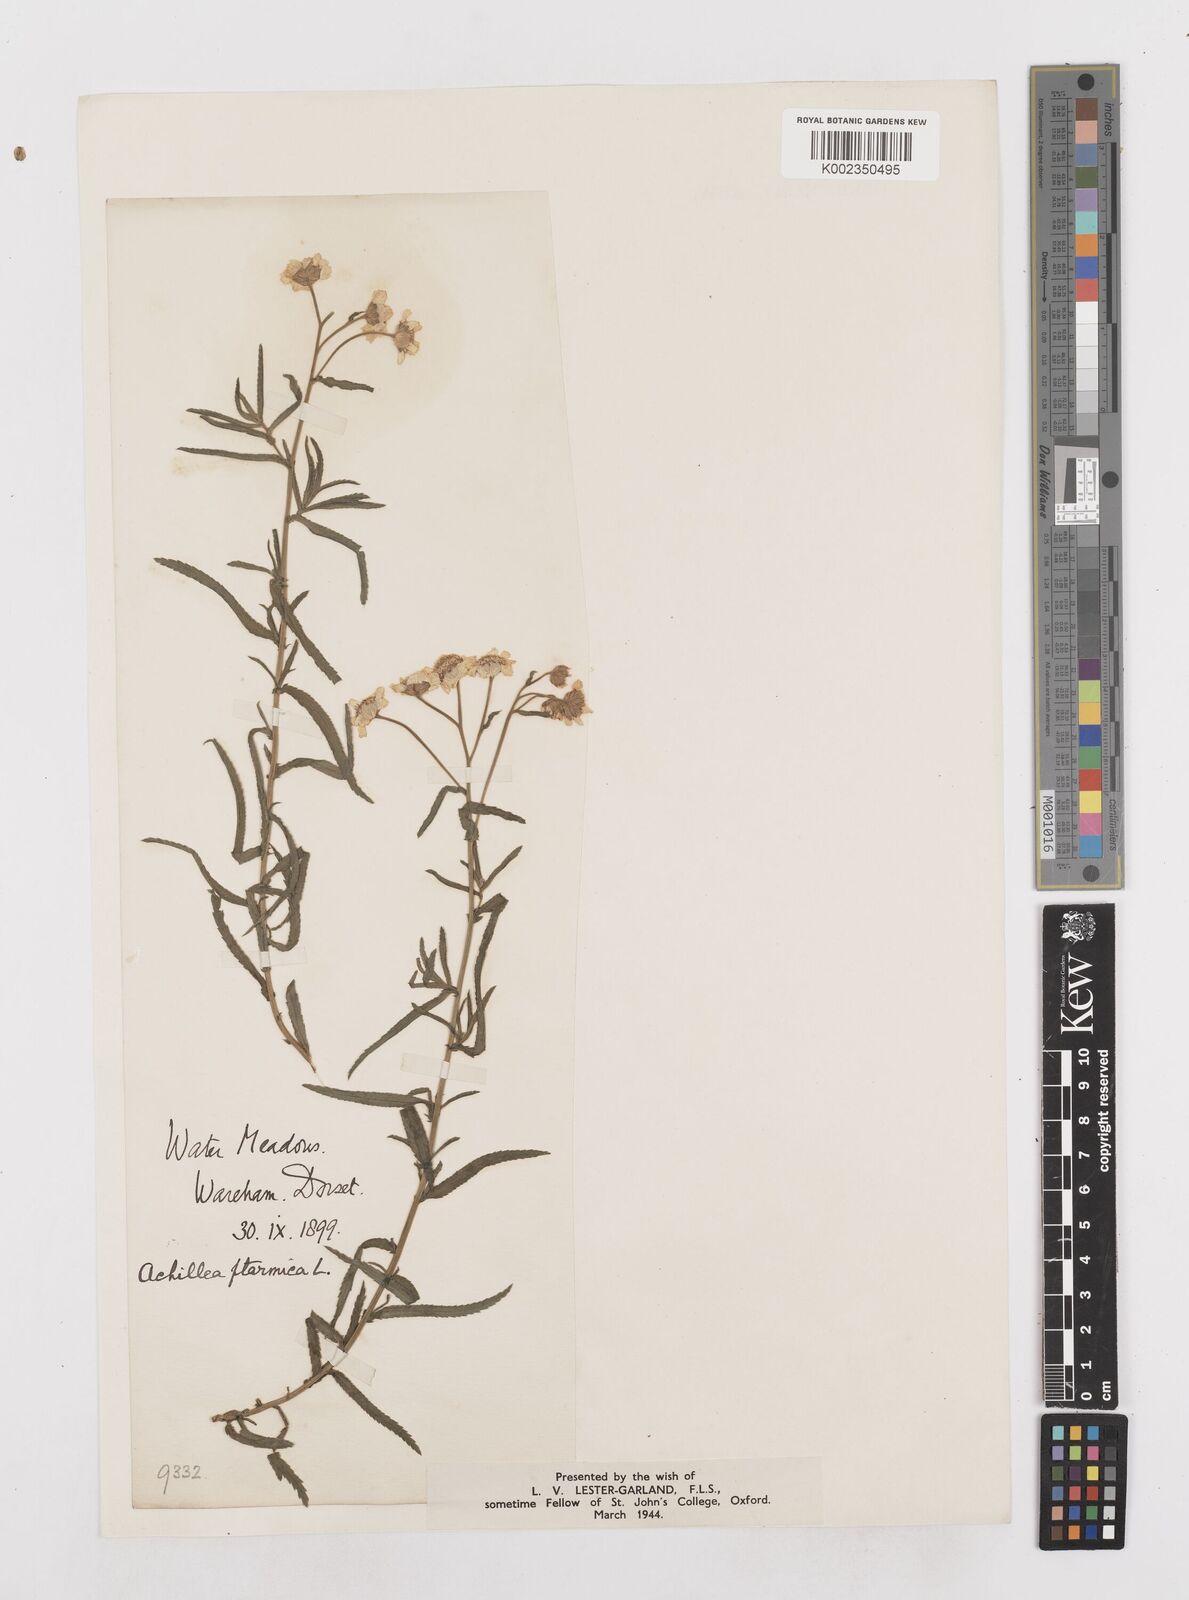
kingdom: Plantae
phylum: Tracheophyta
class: Magnoliopsida
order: Asterales
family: Asteraceae
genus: Achillea
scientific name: Achillea ptarmica
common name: Sneezeweed
